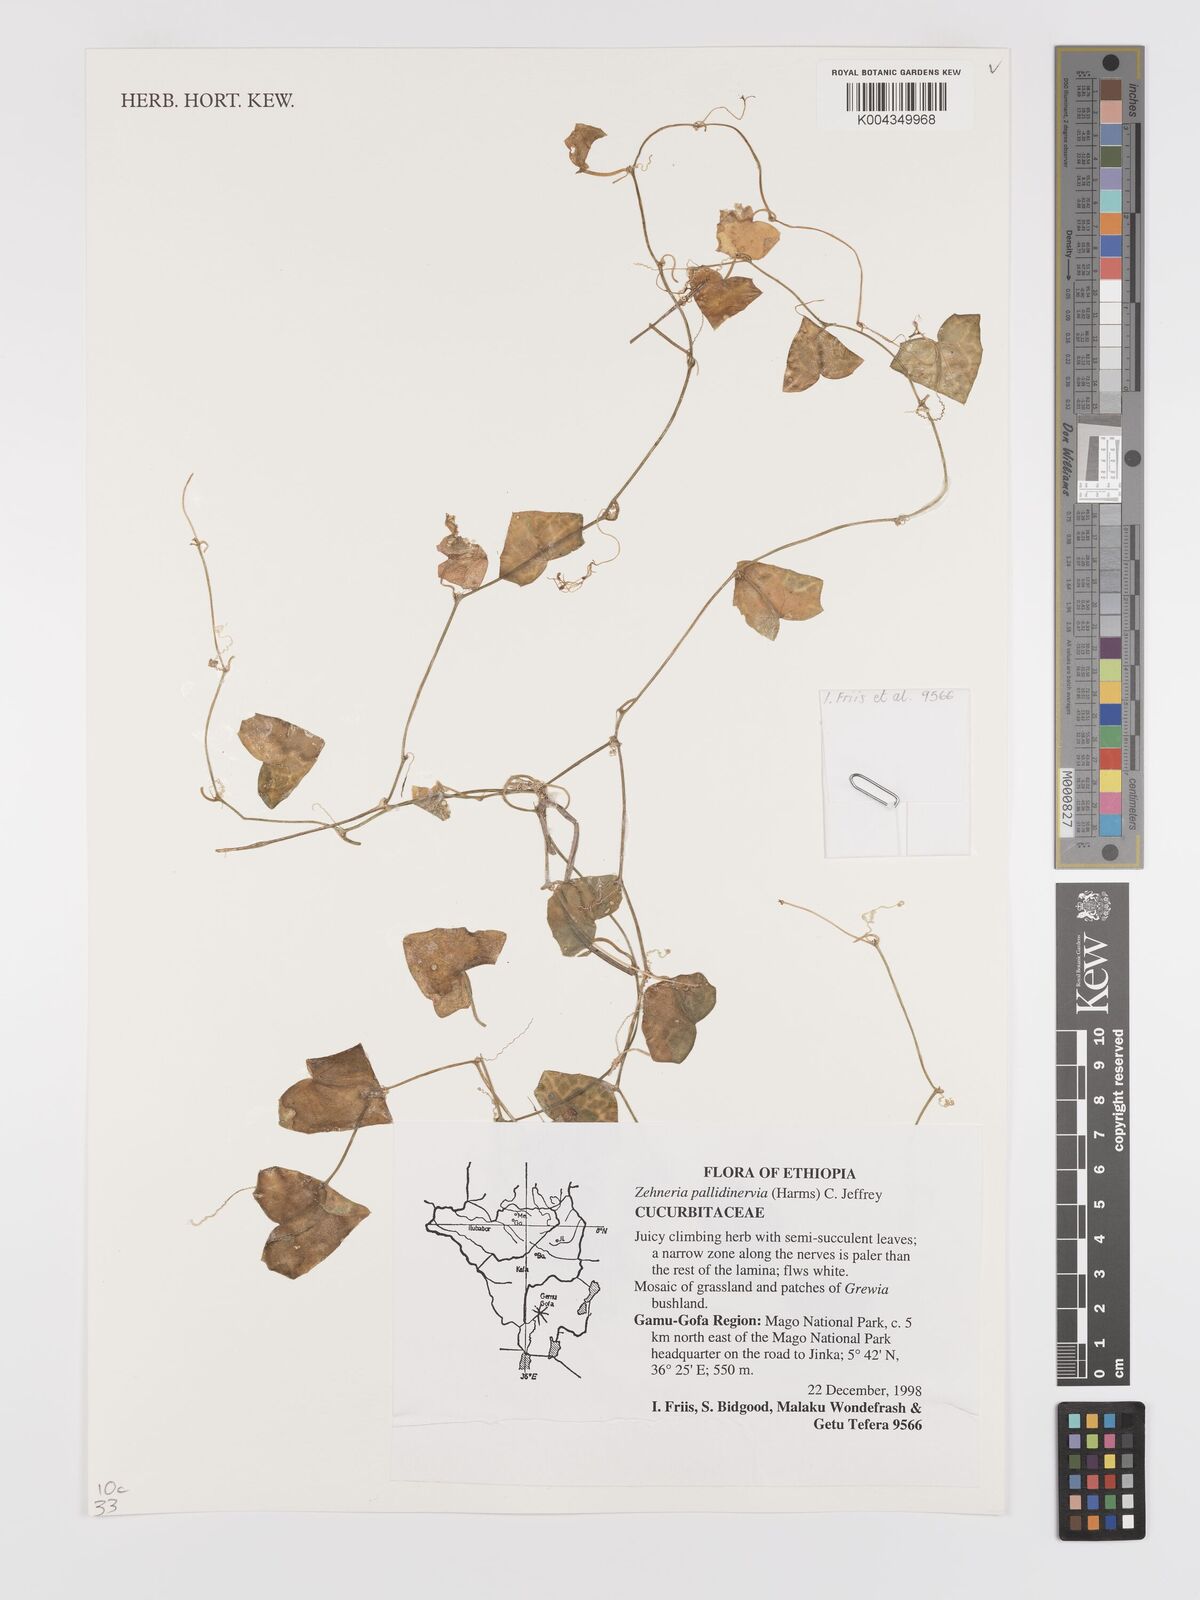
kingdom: Plantae
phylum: Tracheophyta
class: Magnoliopsida
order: Cucurbitales
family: Cucurbitaceae
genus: Zehneria
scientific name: Zehneria pallidinervia
